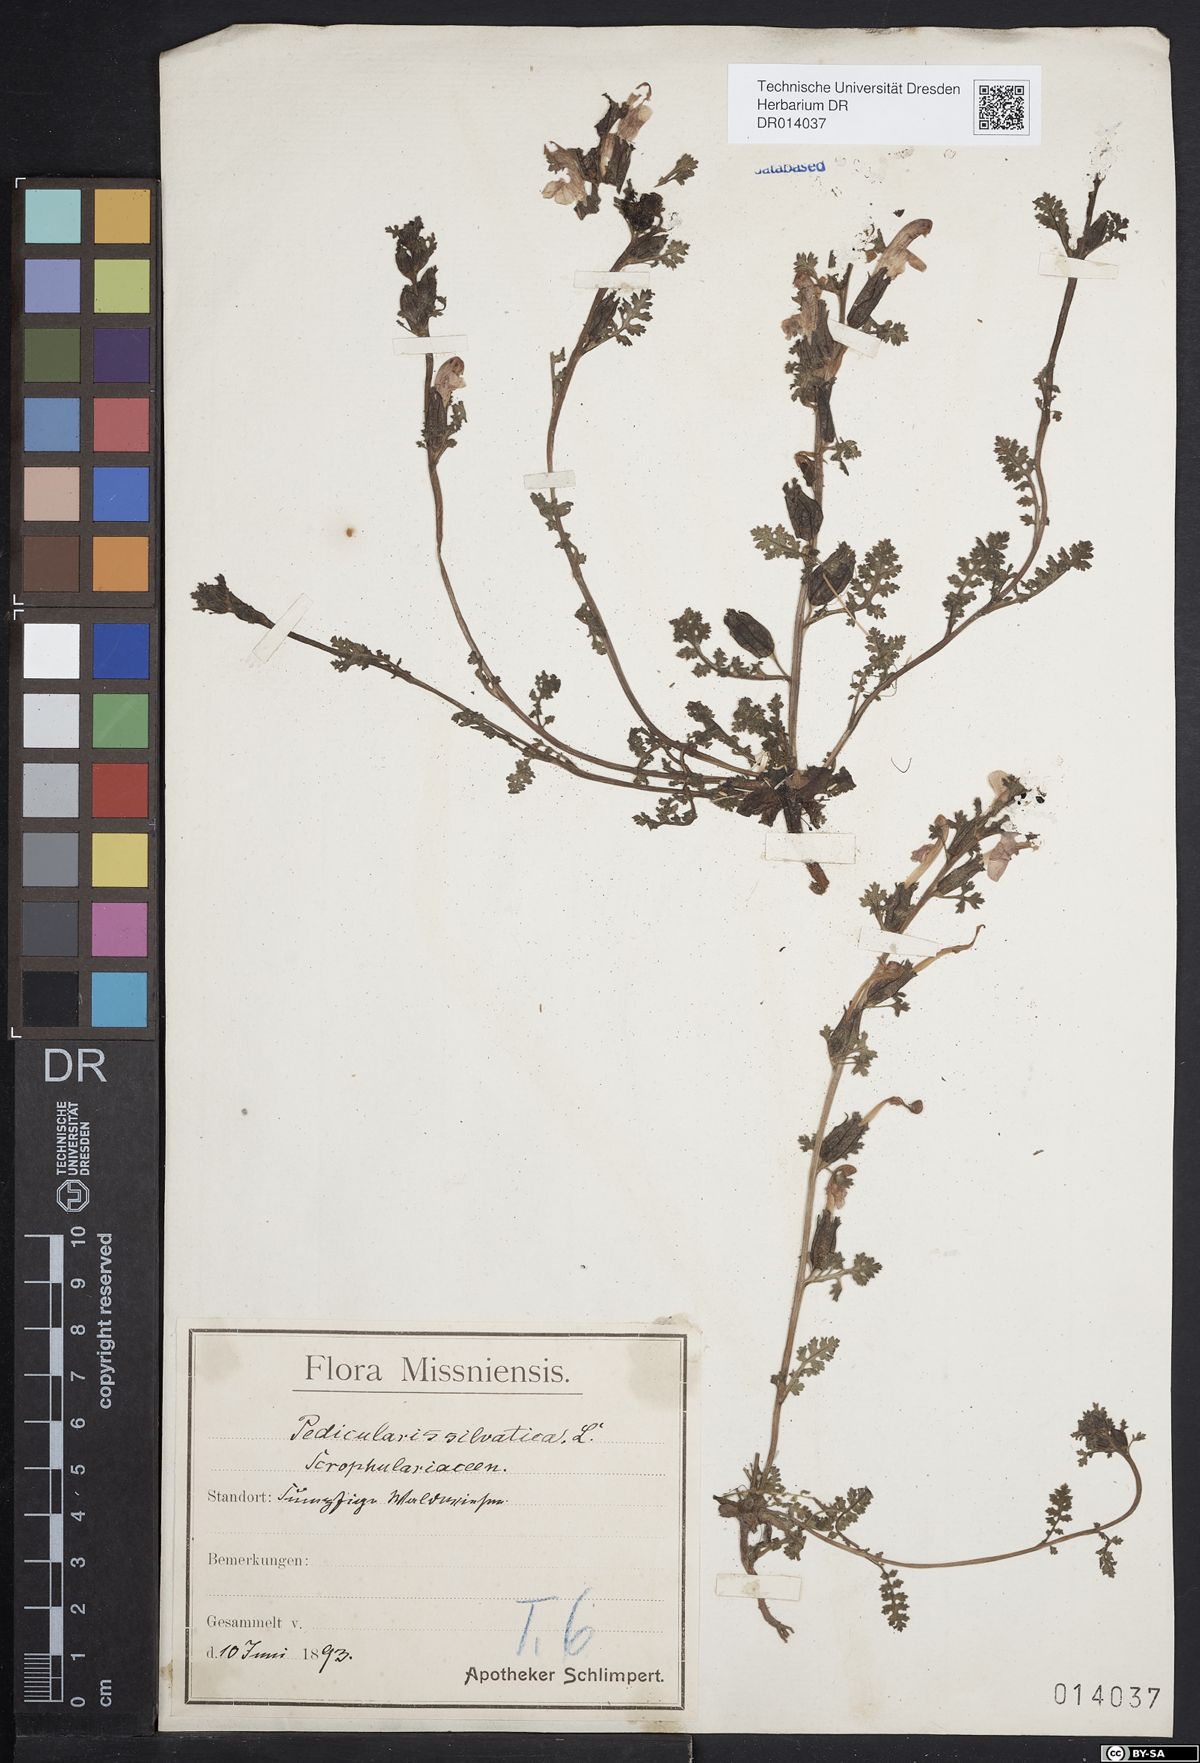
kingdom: Plantae
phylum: Tracheophyta
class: Magnoliopsida
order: Lamiales
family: Orobanchaceae
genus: Pedicularis
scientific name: Pedicularis sylvatica
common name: Lousewort
